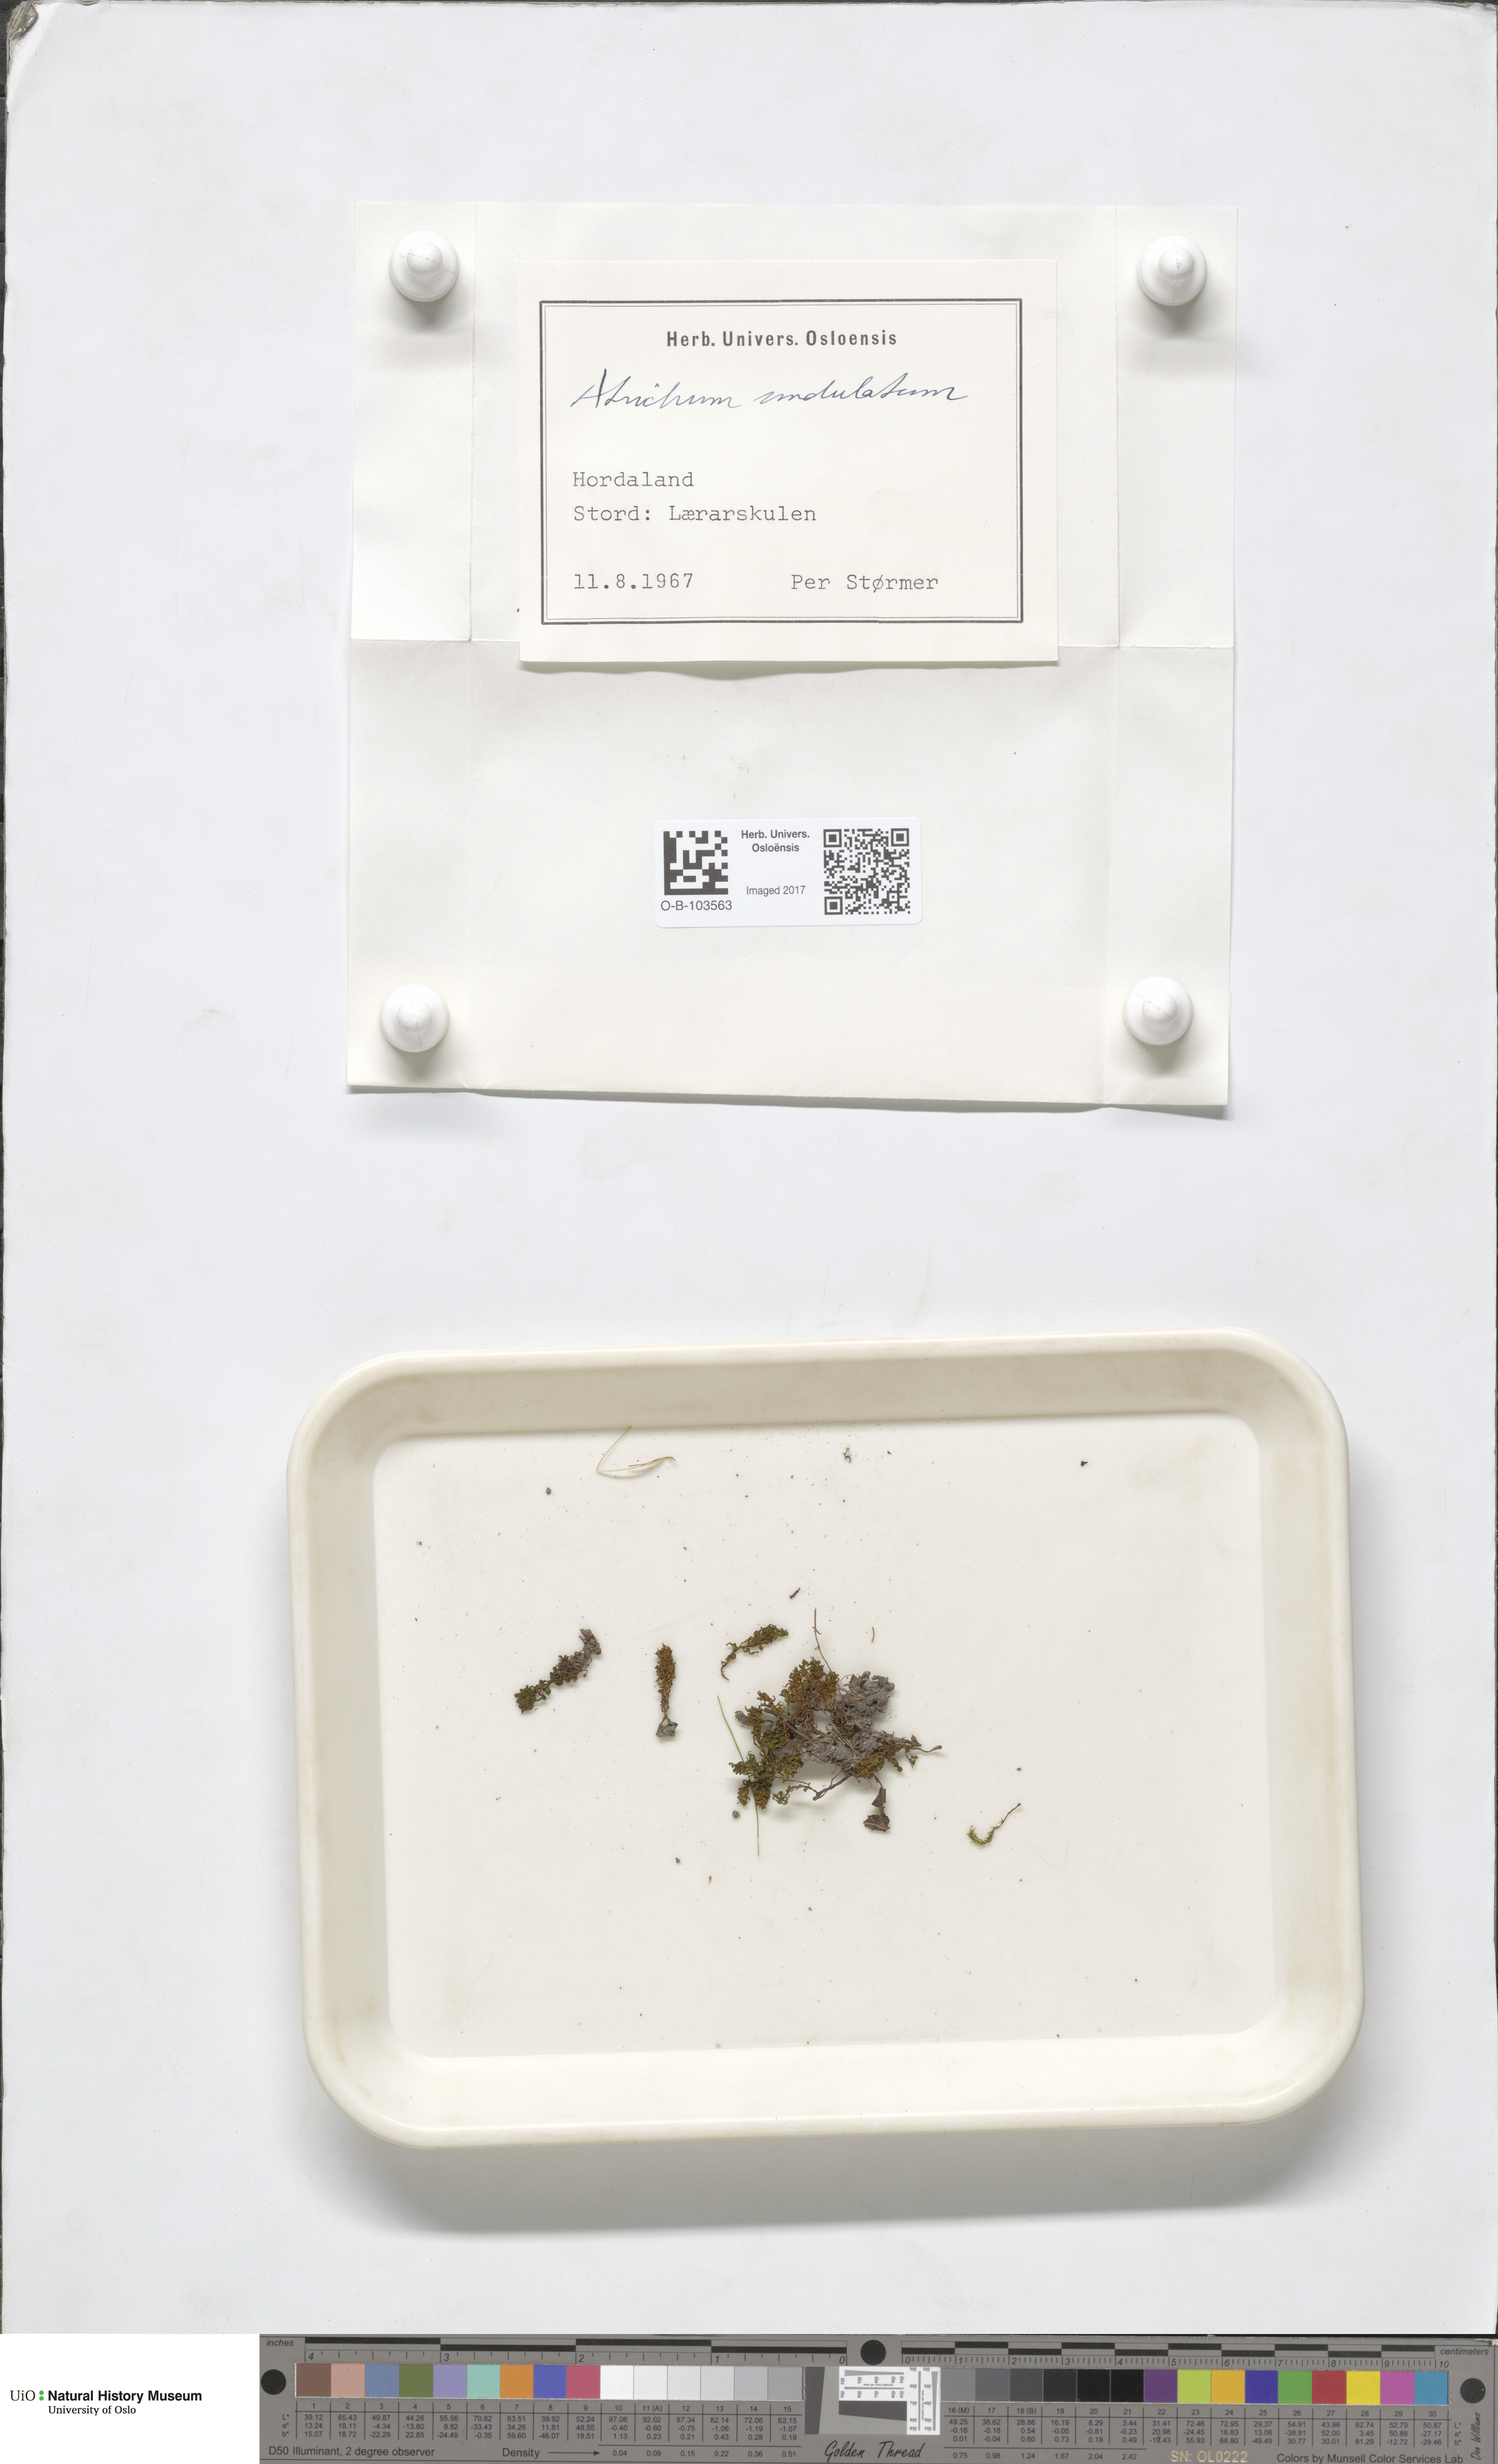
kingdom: Plantae
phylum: Bryophyta
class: Polytrichopsida
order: Polytrichales
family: Polytrichaceae
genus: Atrichum
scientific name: Atrichum undulatum
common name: Common smoothcap
